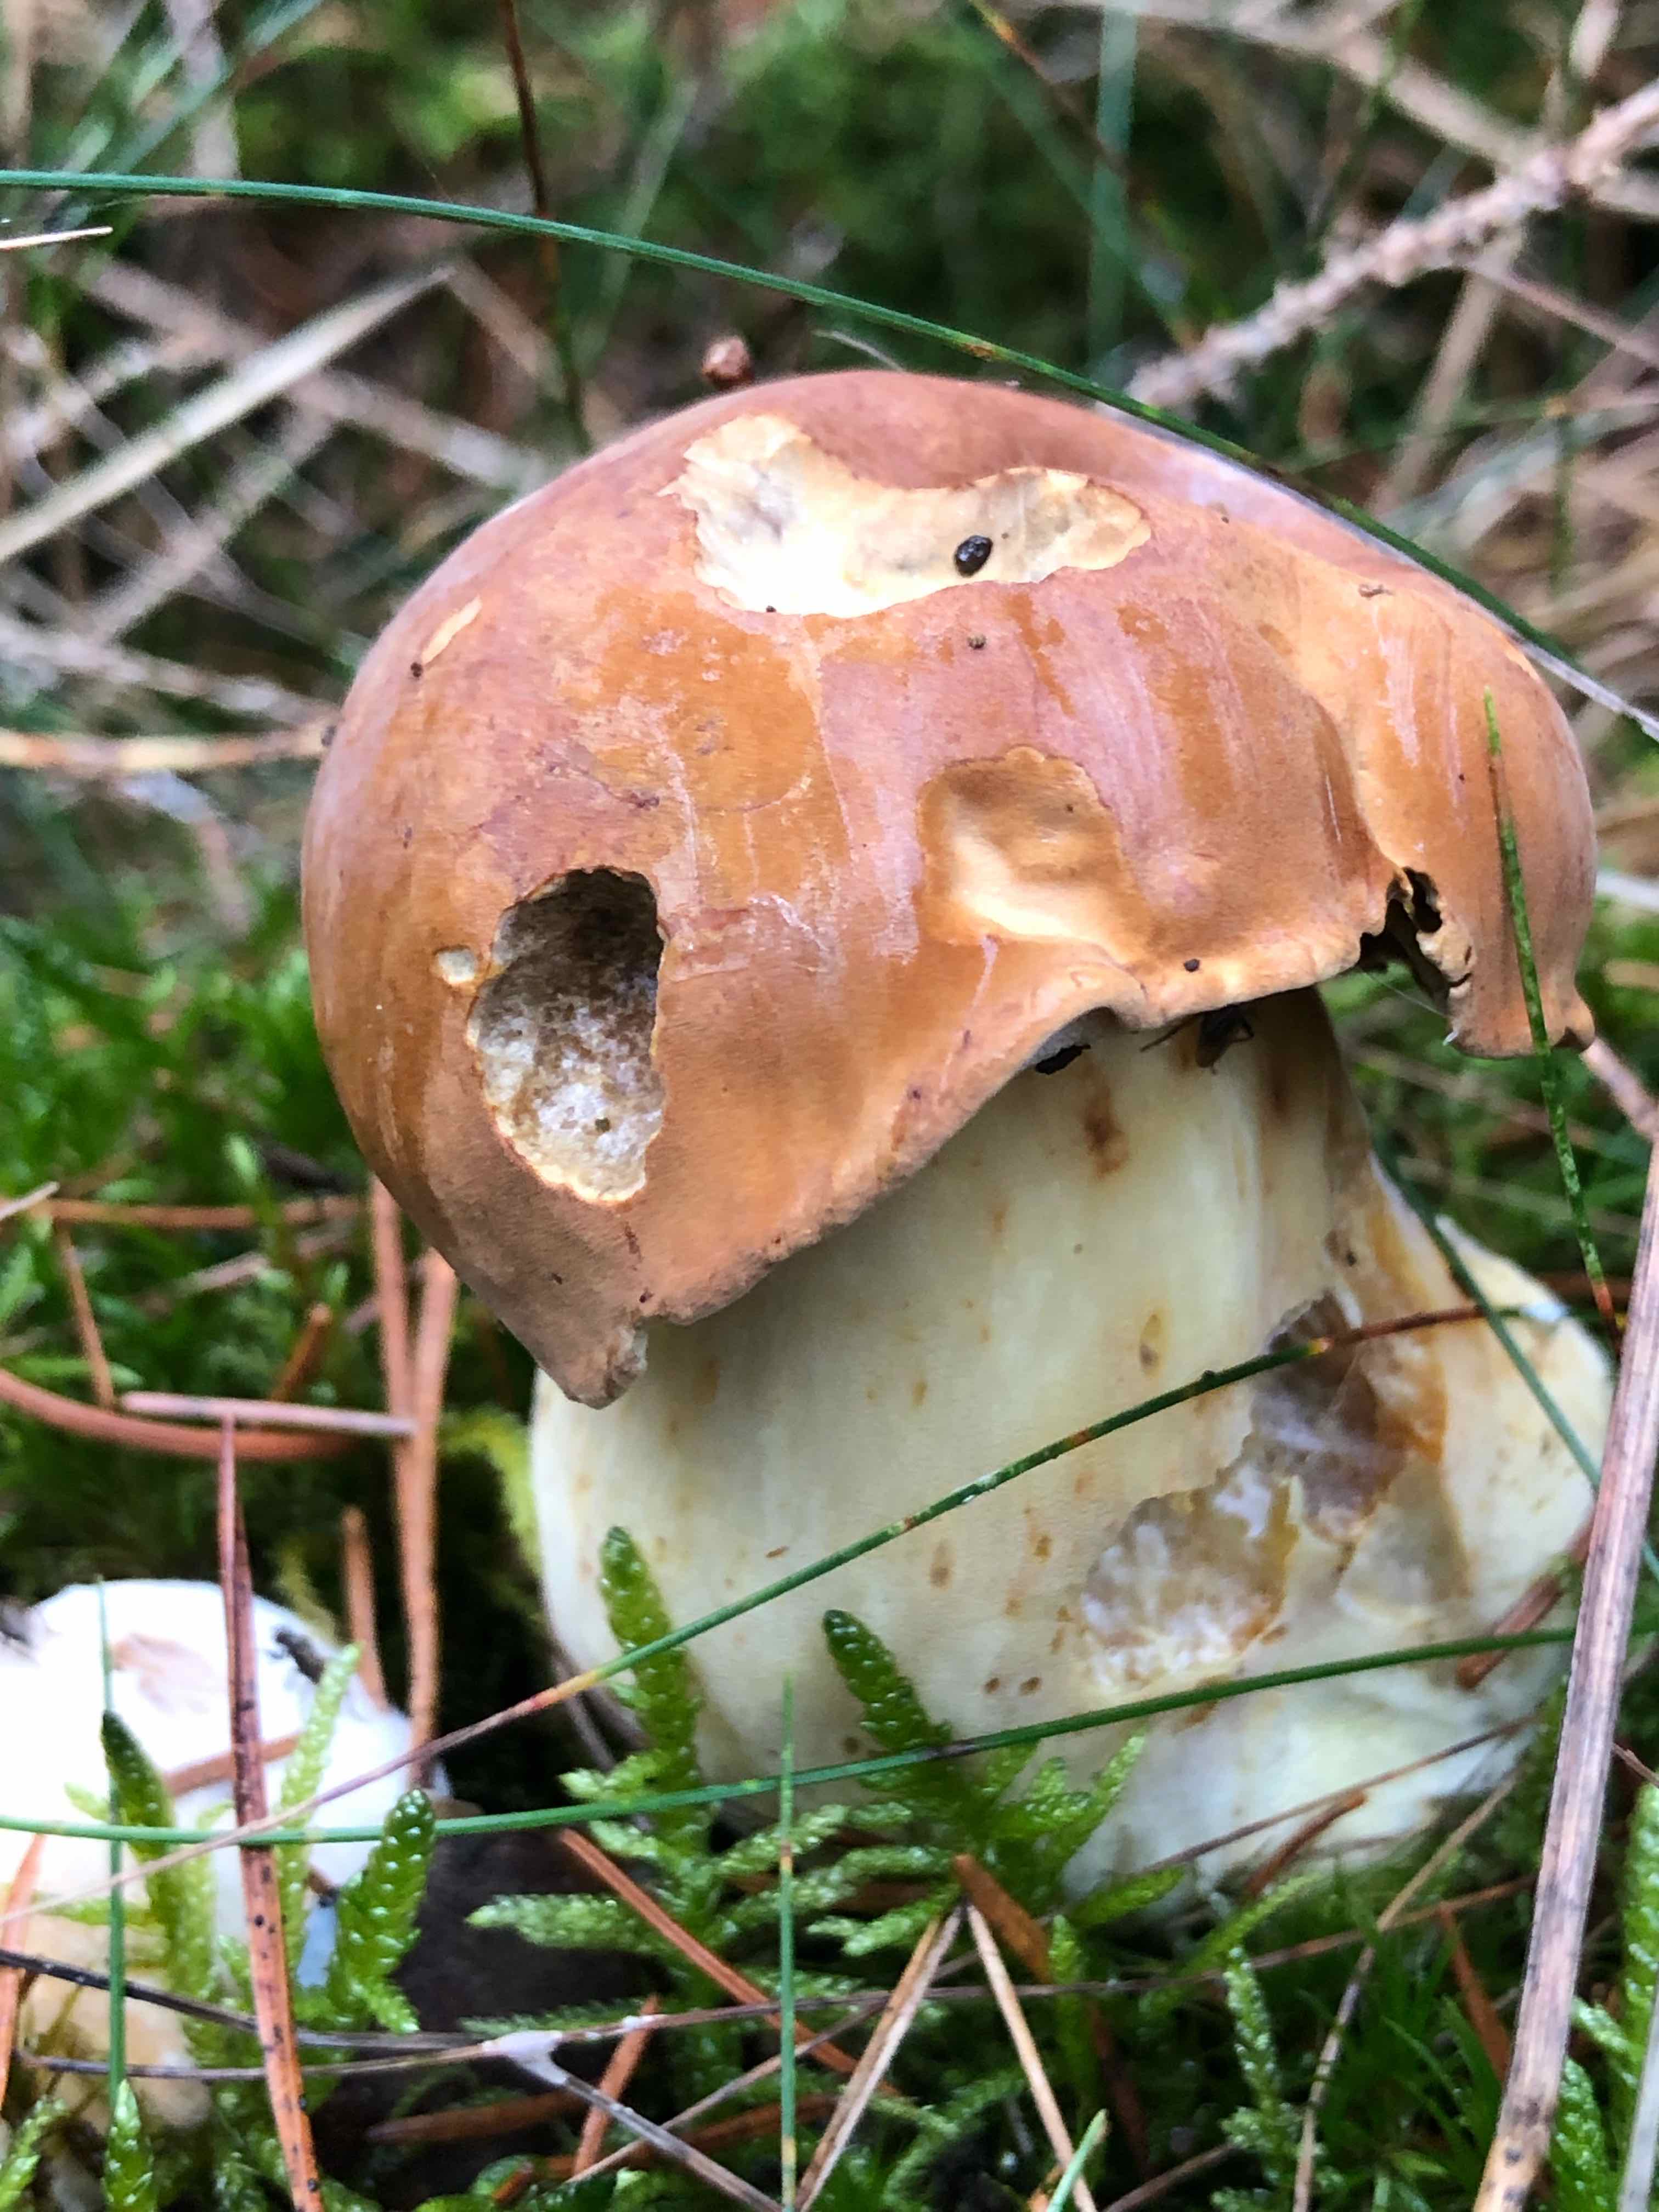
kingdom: Fungi
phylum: Basidiomycota
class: Agaricomycetes
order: Boletales
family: Boletaceae
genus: Boletus
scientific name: Boletus edulis
